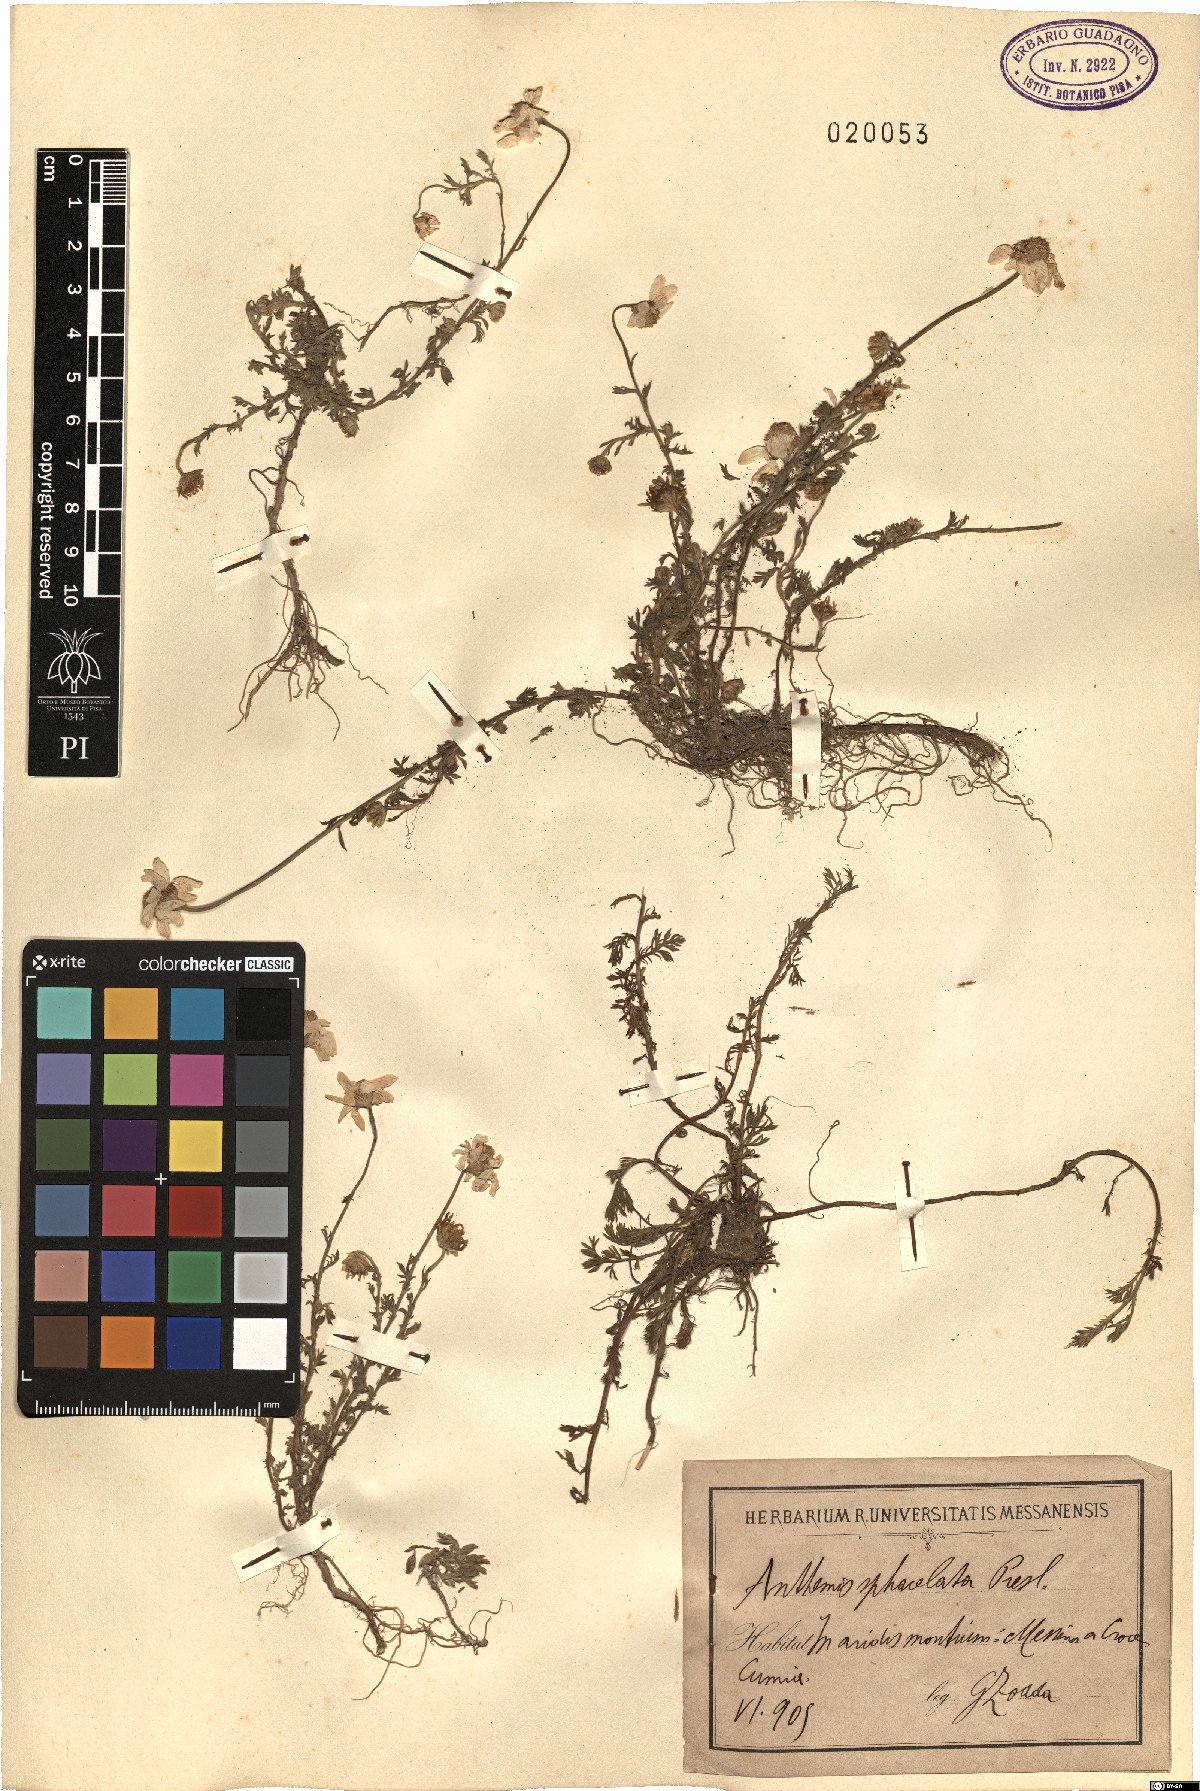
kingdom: Plantae
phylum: Tracheophyta
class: Magnoliopsida
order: Asterales
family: Asteraceae
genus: Anthemis
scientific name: Anthemis arvensis
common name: Corn chamomile
